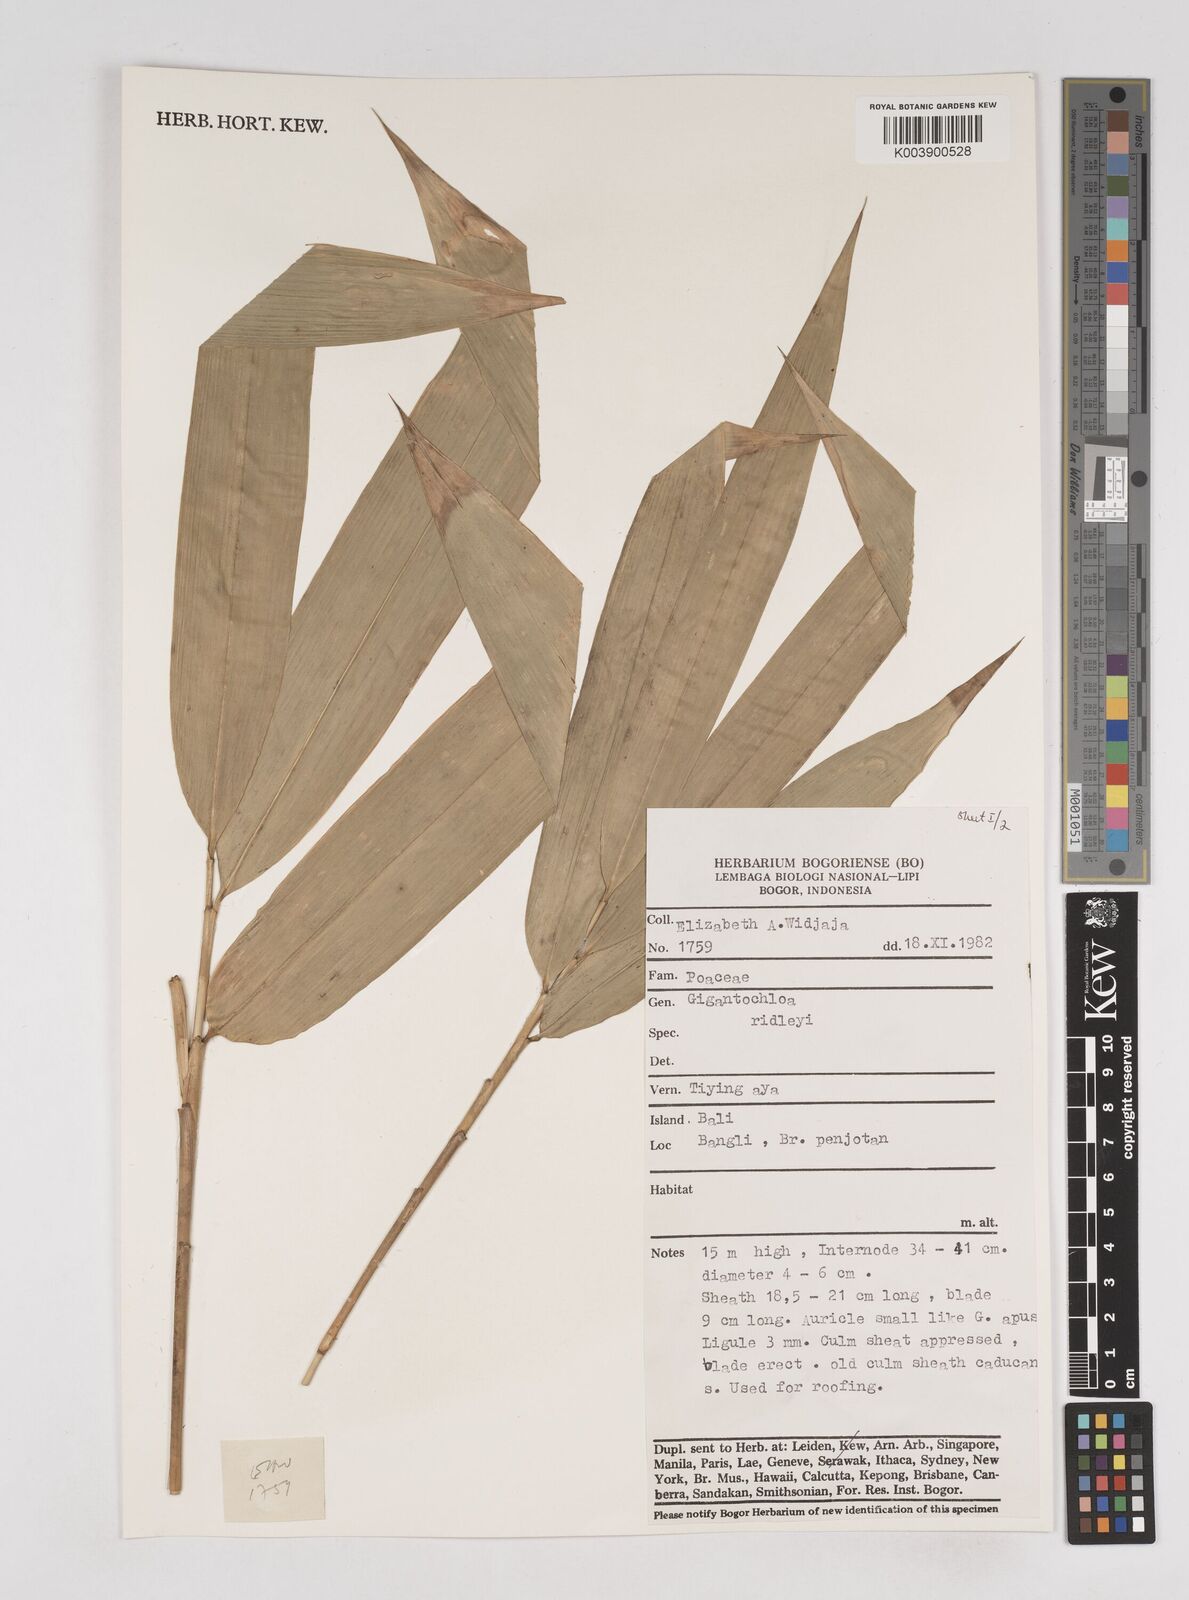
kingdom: Plantae
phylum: Tracheophyta
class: Liliopsida
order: Poales
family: Poaceae
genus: Gigantochloa
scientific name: Gigantochloa ridleyi
